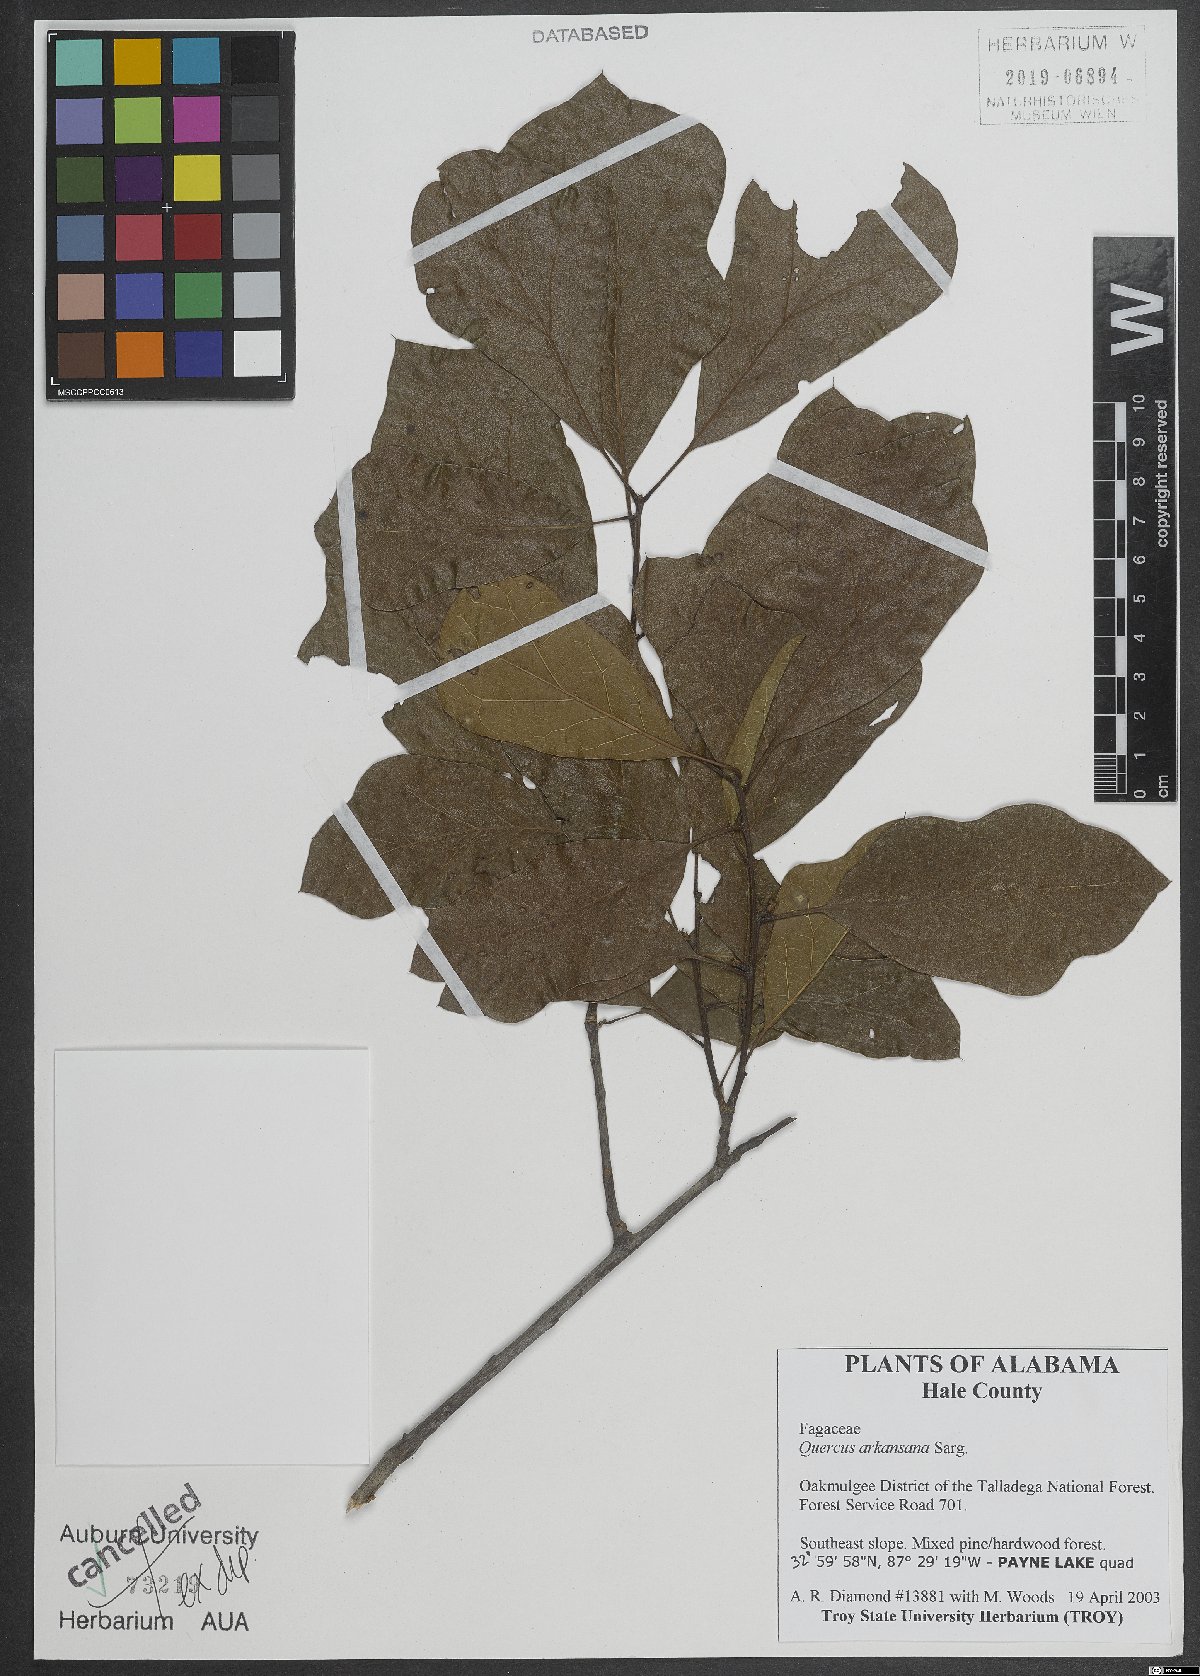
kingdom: Plantae
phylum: Tracheophyta
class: Magnoliopsida
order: Fagales
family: Fagaceae
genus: Quercus
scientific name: Quercus arkansana
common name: Arkansas oak
